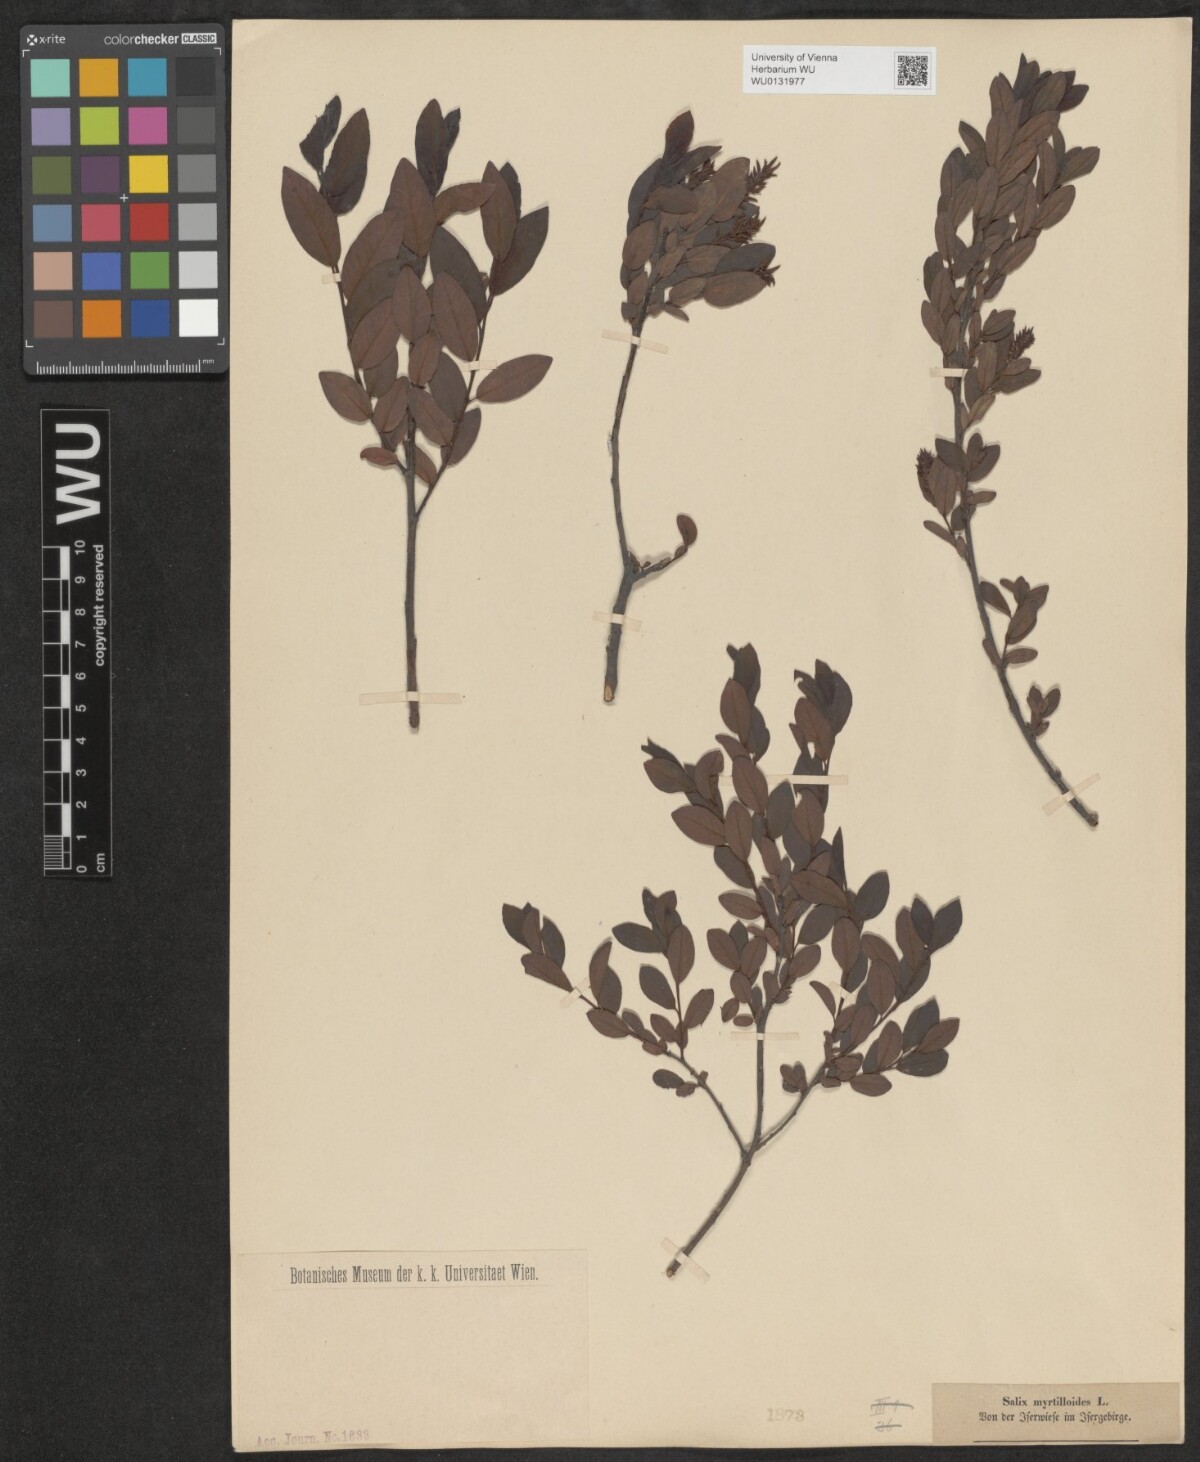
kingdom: Plantae
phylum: Tracheophyta
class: Magnoliopsida
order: Malpighiales
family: Salicaceae
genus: Salix
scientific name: Salix myrtilloides
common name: Myrtle-leaved willow
